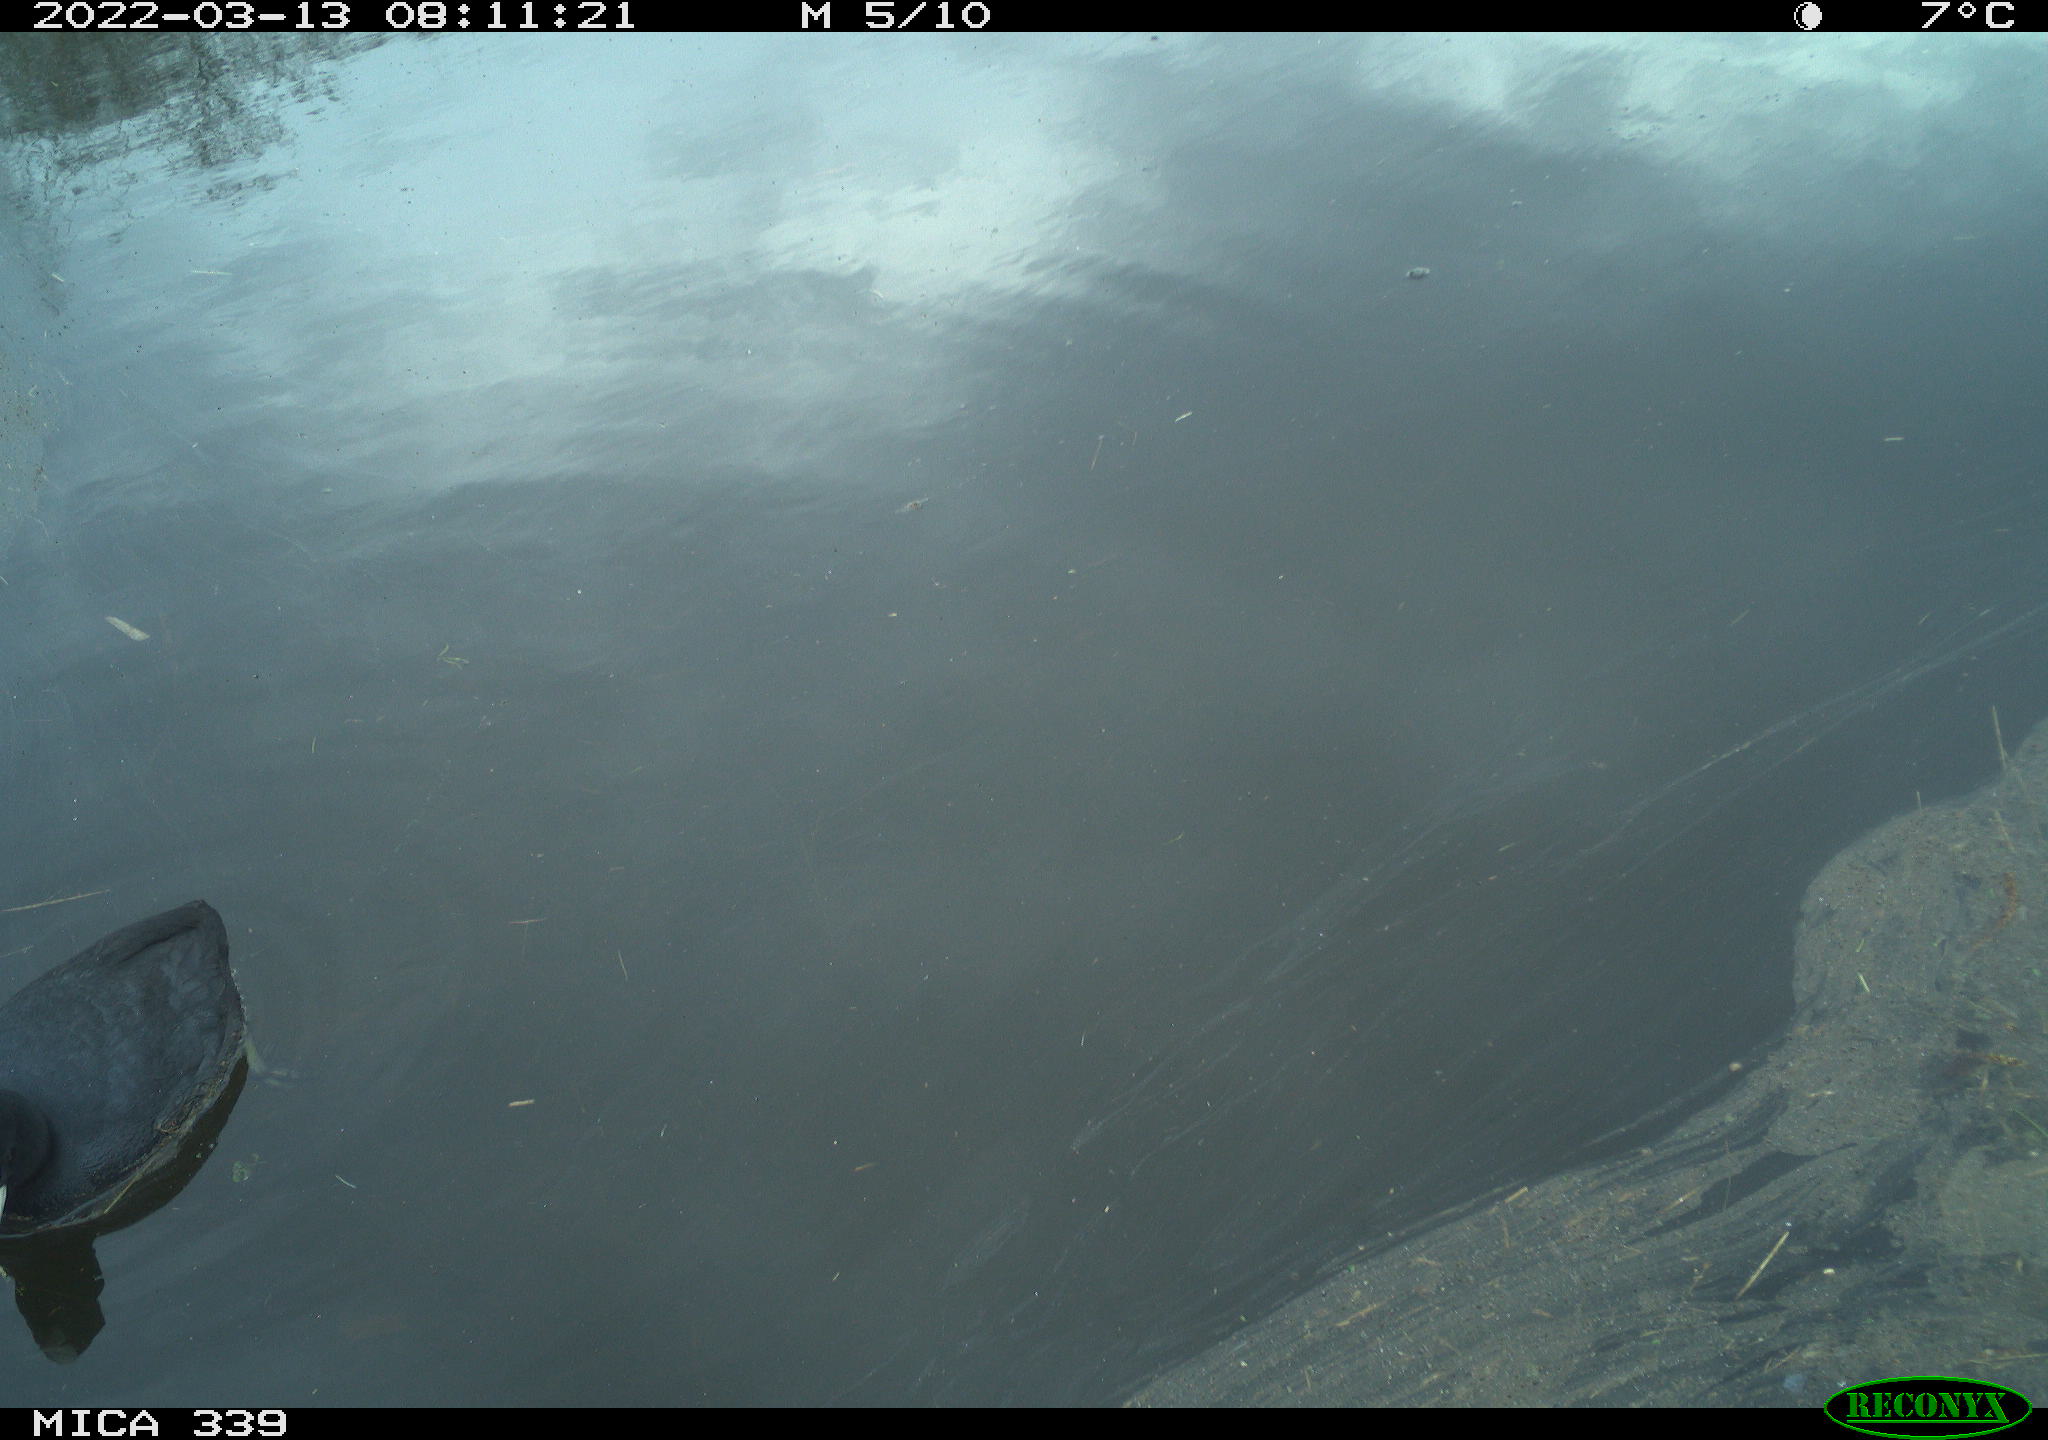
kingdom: Animalia
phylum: Chordata
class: Aves
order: Gruiformes
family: Rallidae
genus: Fulica
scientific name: Fulica atra
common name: Eurasian coot
